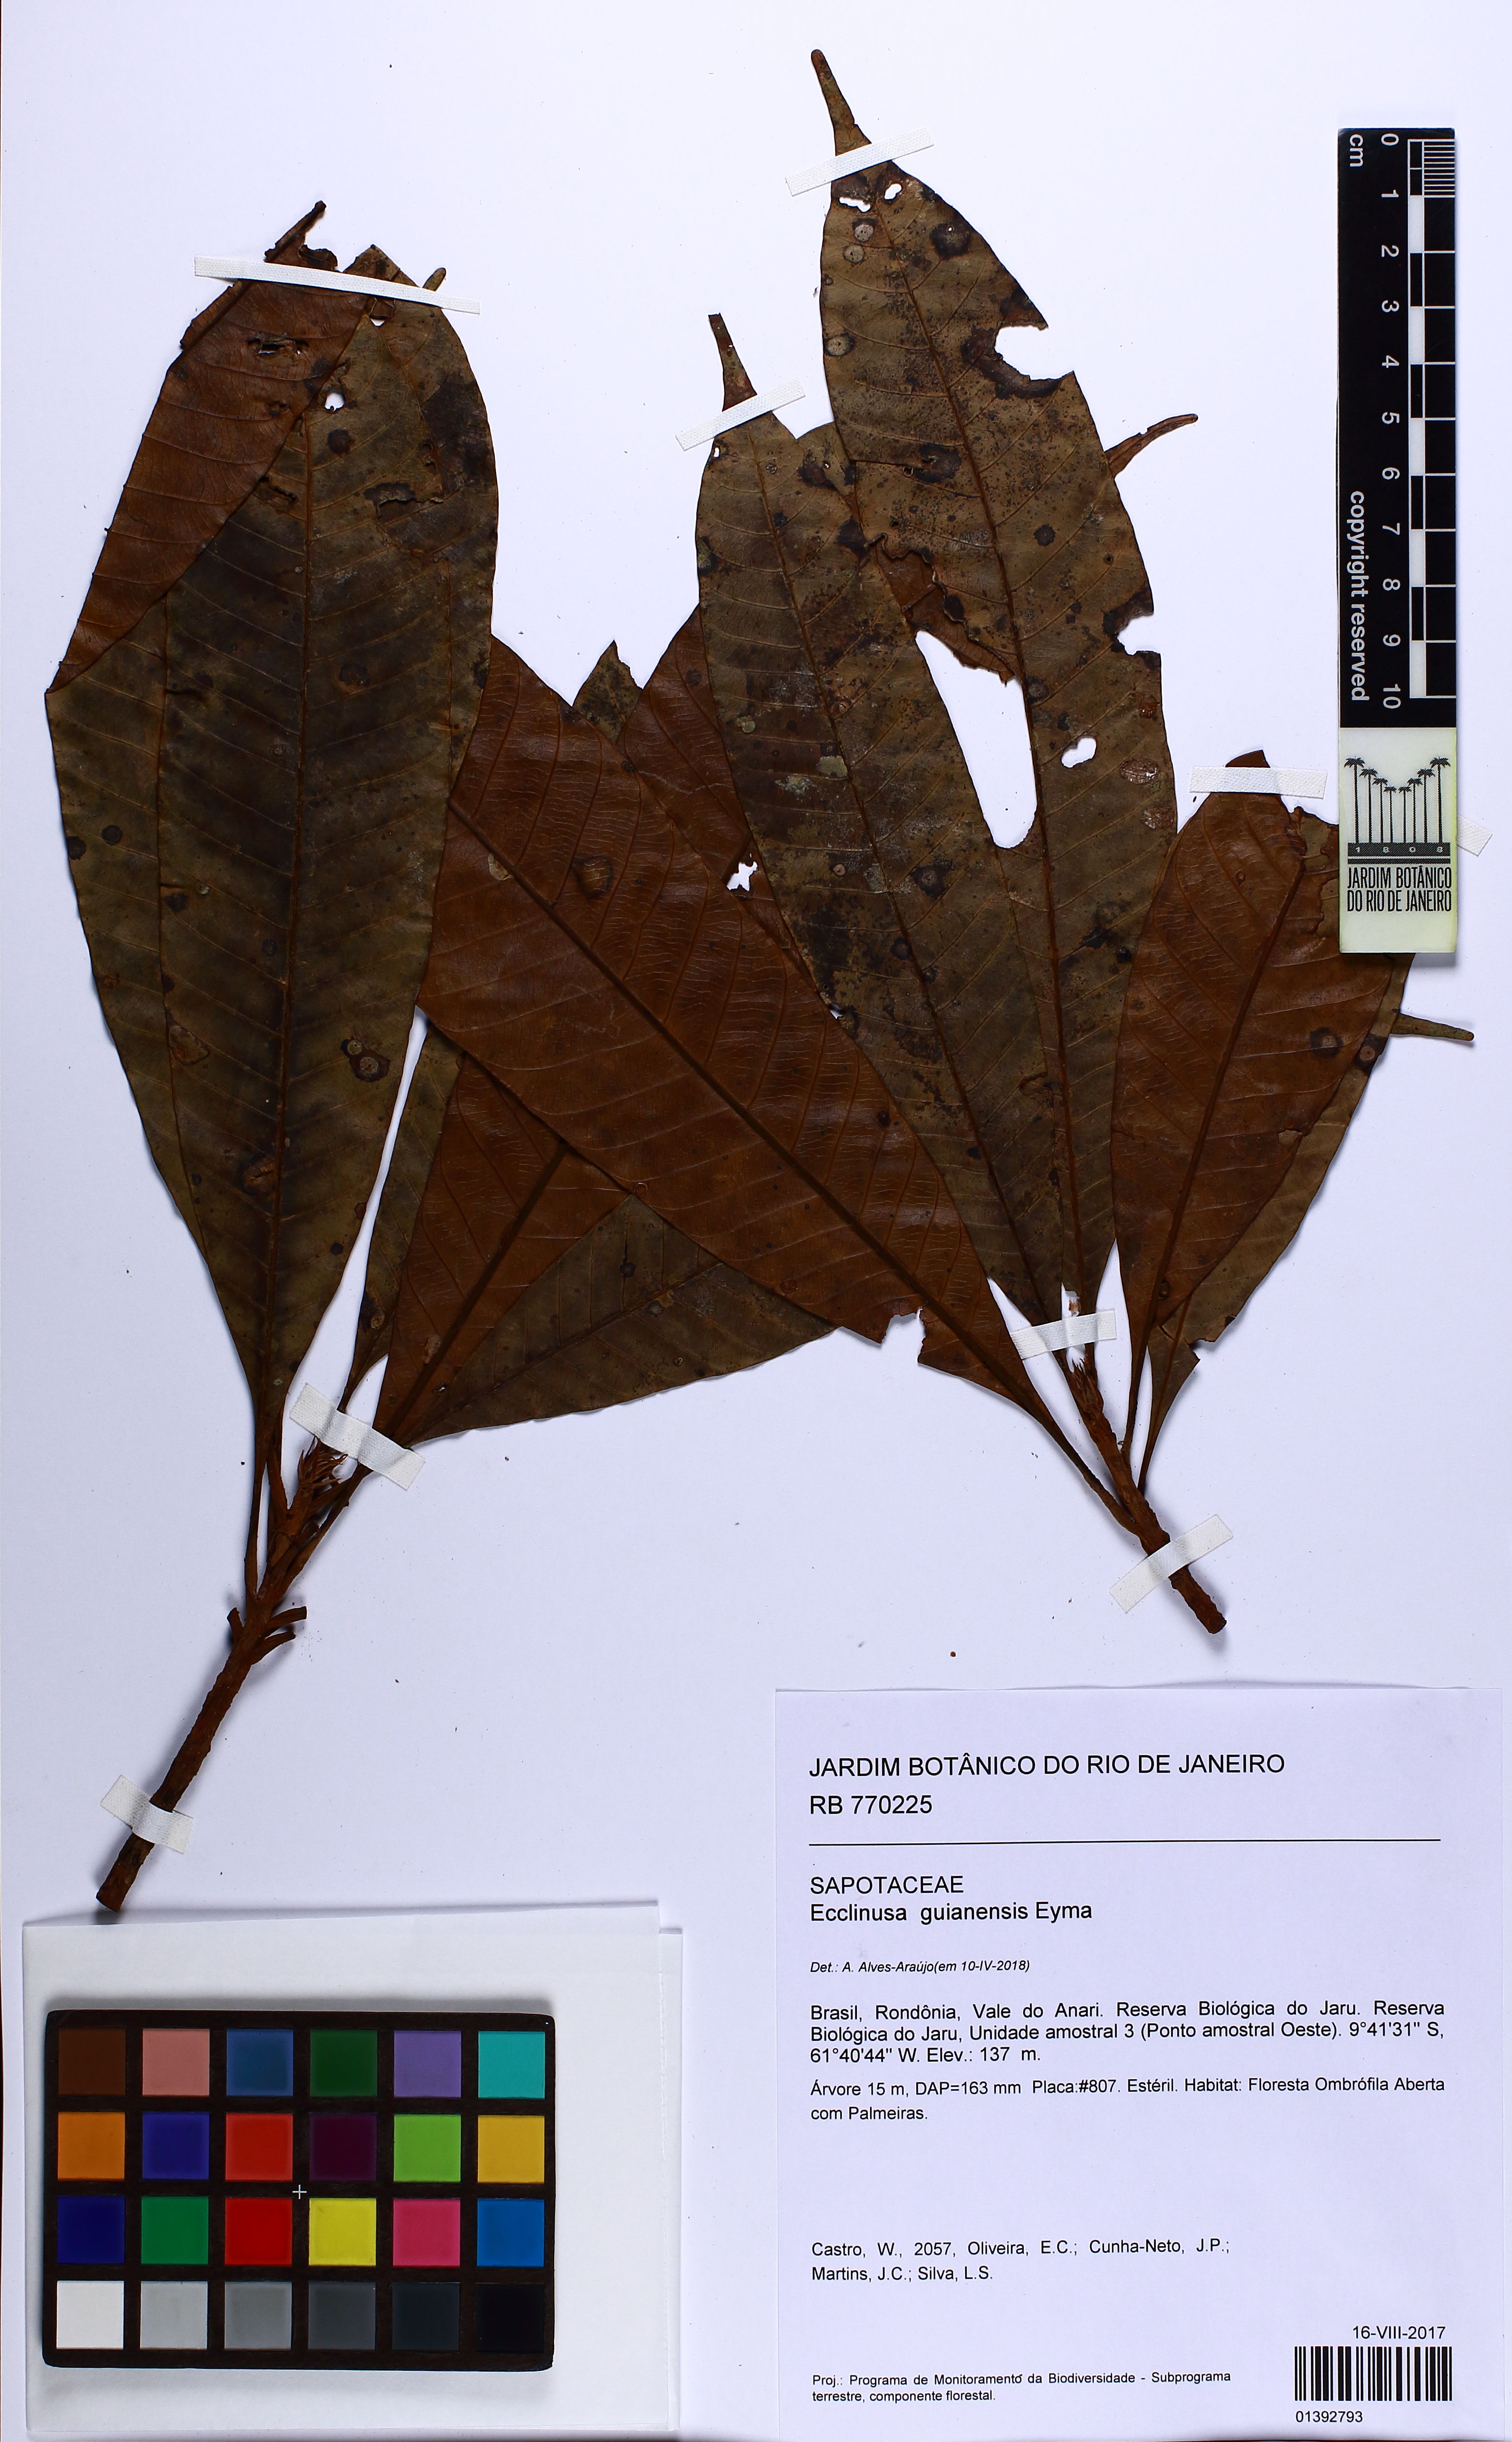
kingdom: Plantae
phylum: Tracheophyta
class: Magnoliopsida
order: Ericales
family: Sapotaceae
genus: Ecclinusa
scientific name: Ecclinusa guianensis
